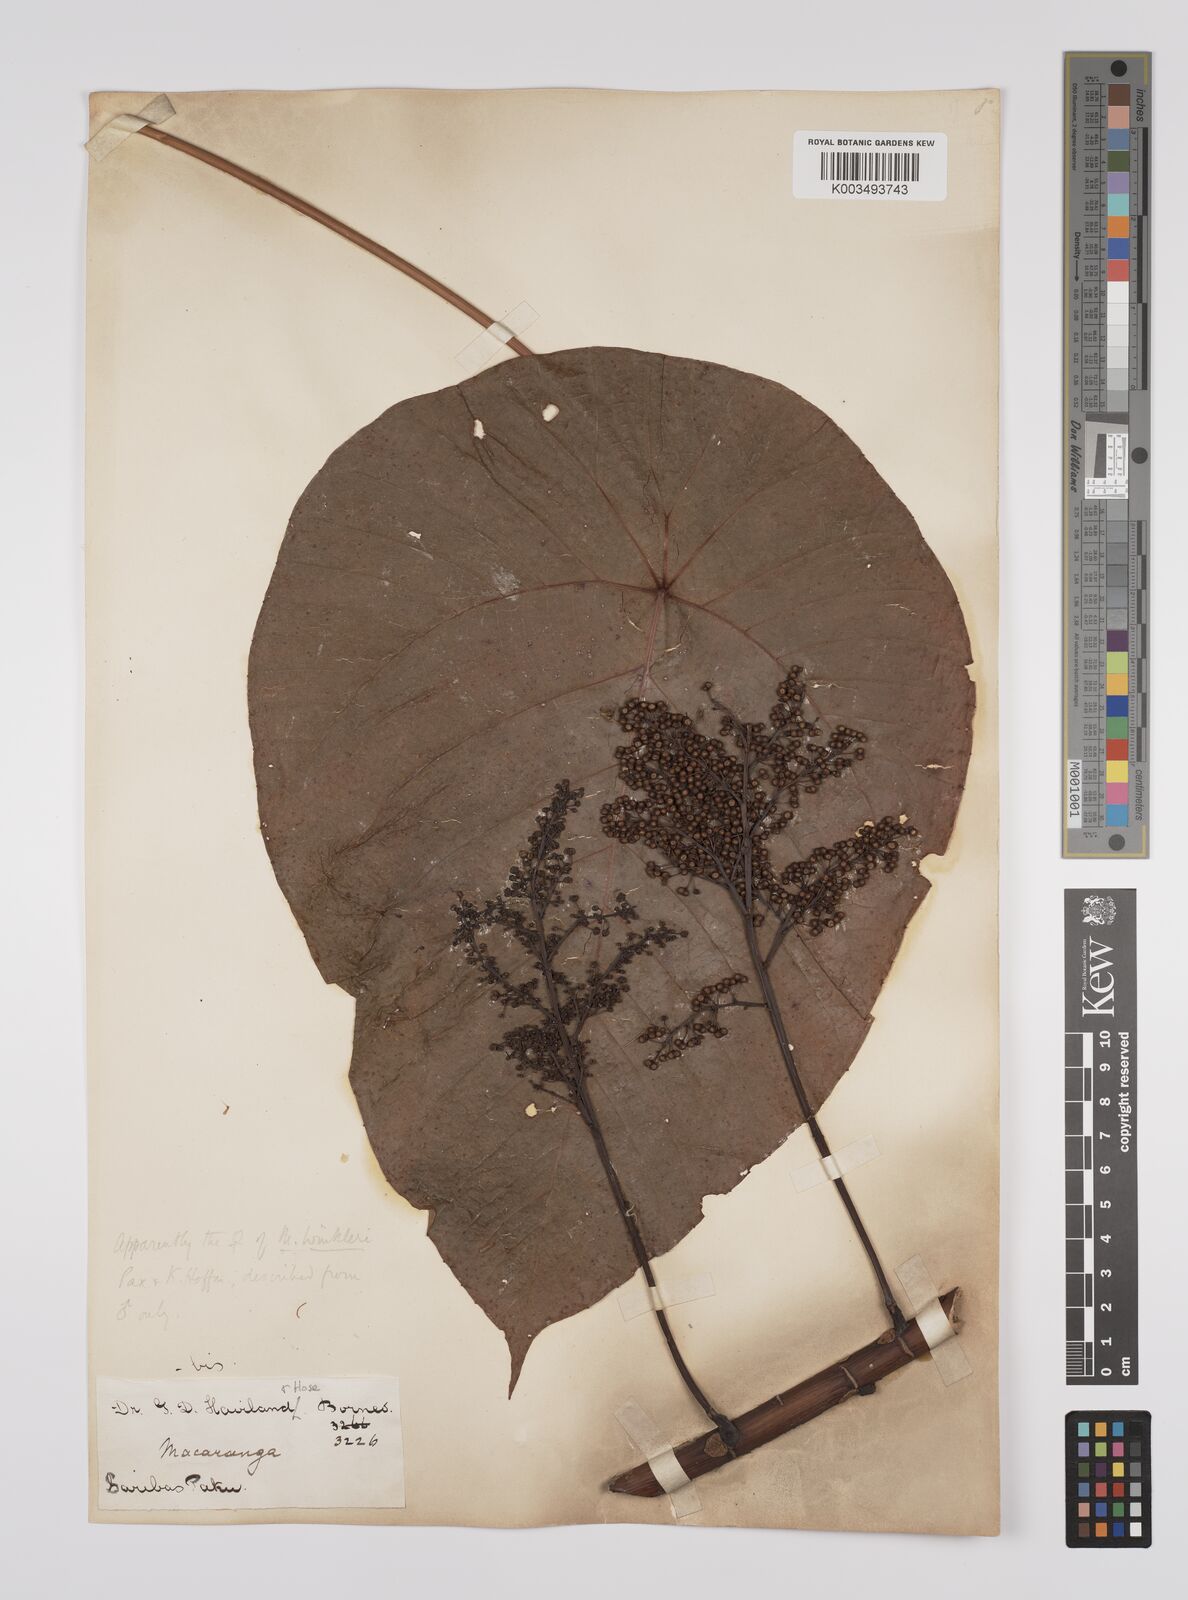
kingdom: Plantae
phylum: Tracheophyta
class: Magnoliopsida
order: Malpighiales
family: Euphorbiaceae
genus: Macaranga
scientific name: Macaranga winkleri
